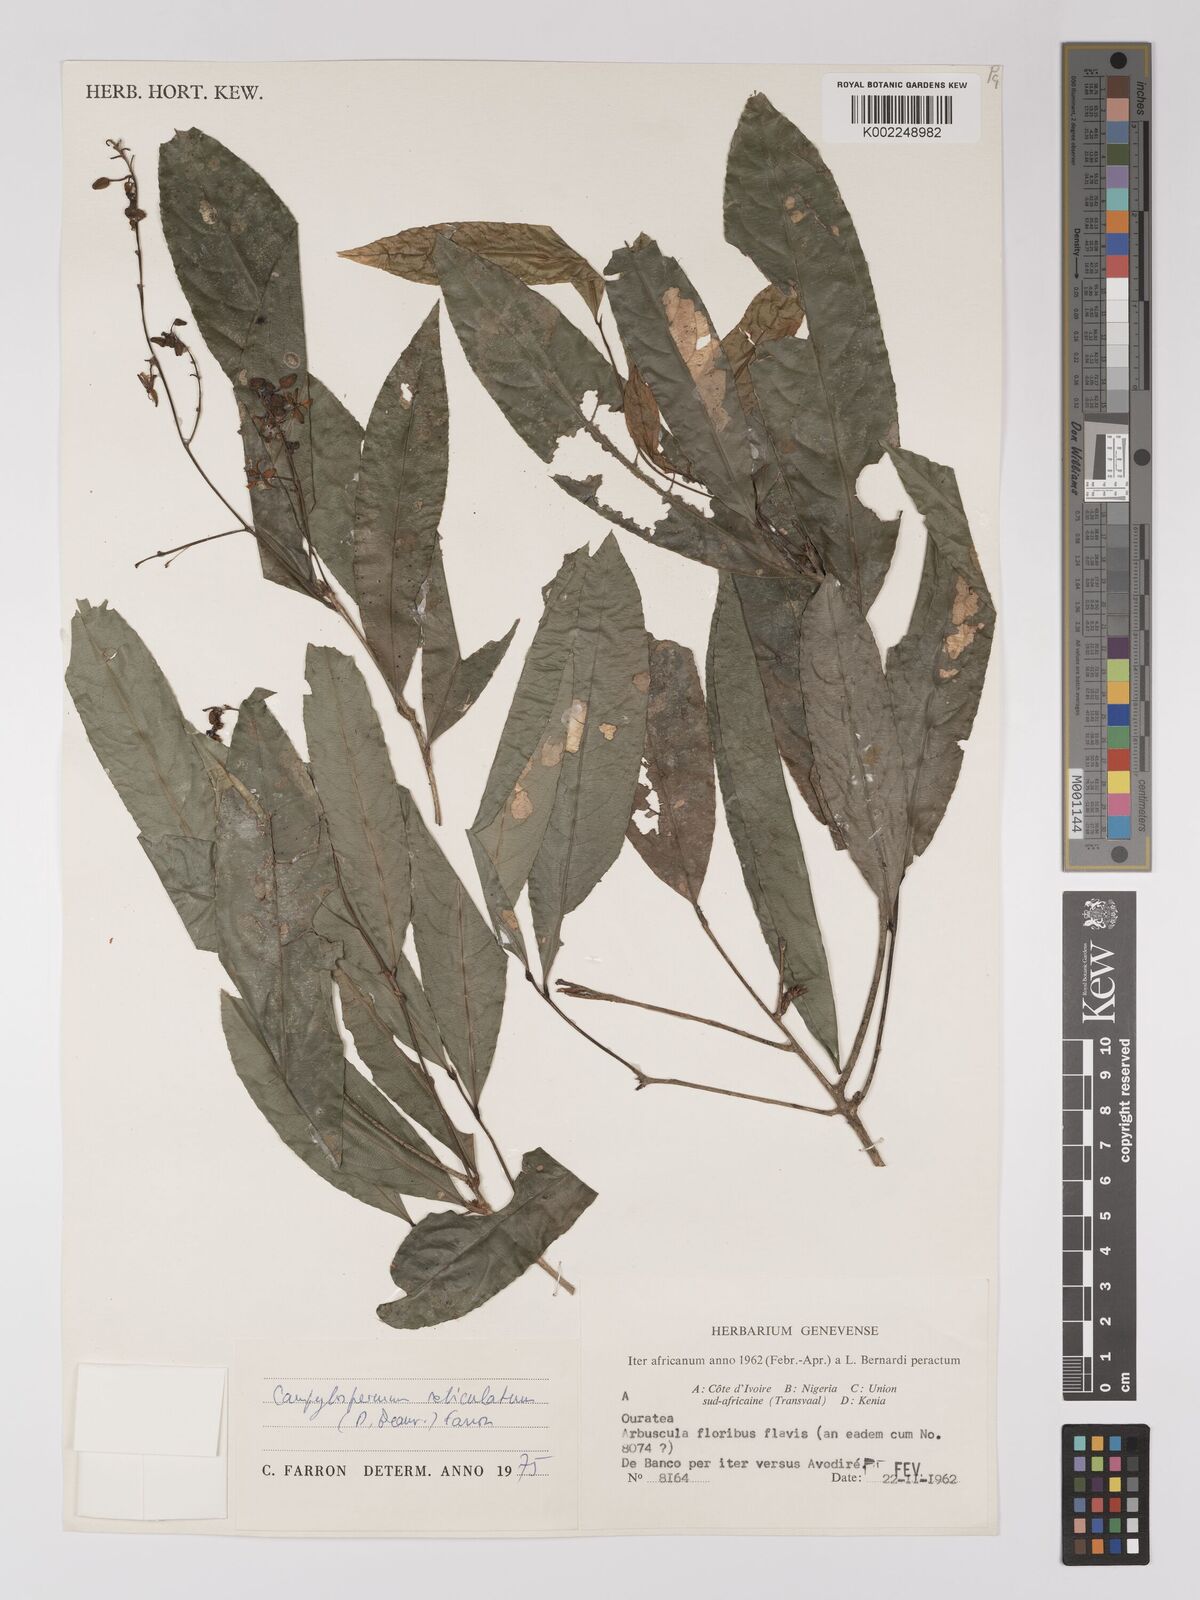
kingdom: Plantae
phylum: Tracheophyta
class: Magnoliopsida
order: Malpighiales
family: Ochnaceae
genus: Campylospermum
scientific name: Campylospermum reticulatum
